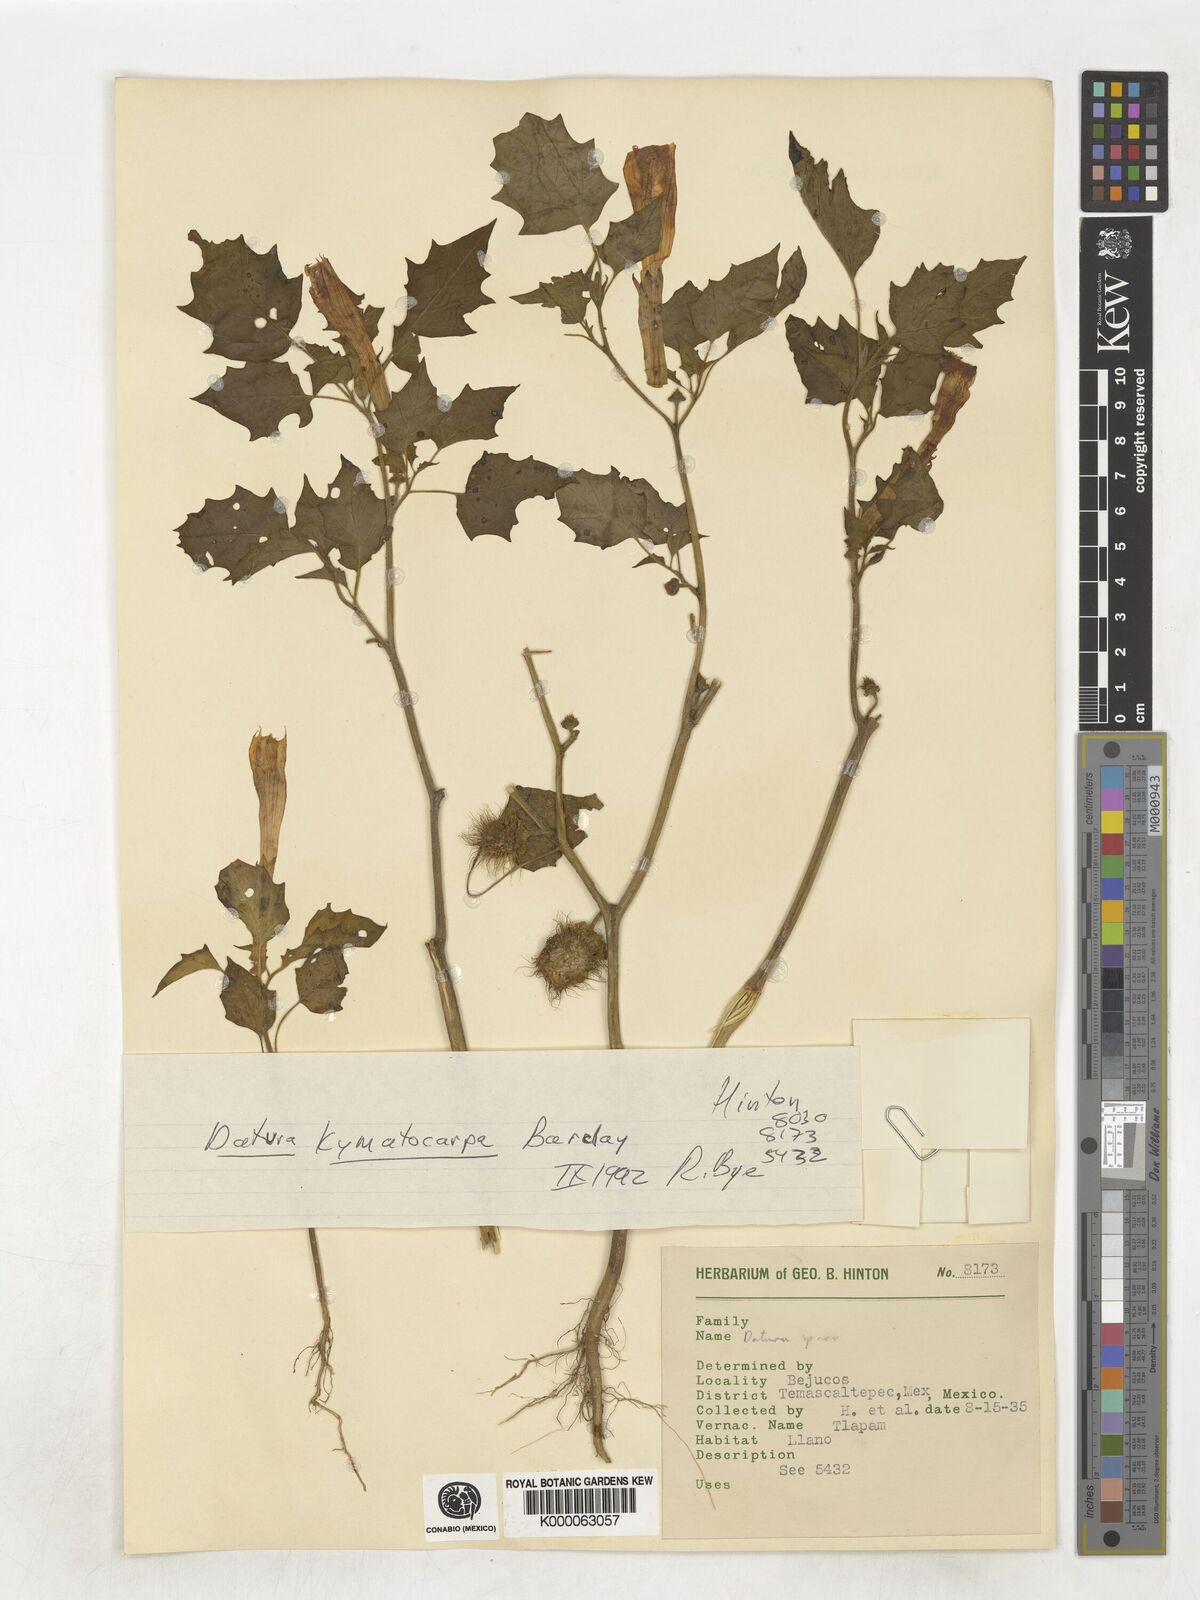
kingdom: Plantae
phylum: Tracheophyta
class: Magnoliopsida
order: Solanales
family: Solanaceae
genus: Datura
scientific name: Datura kymatocarpa
